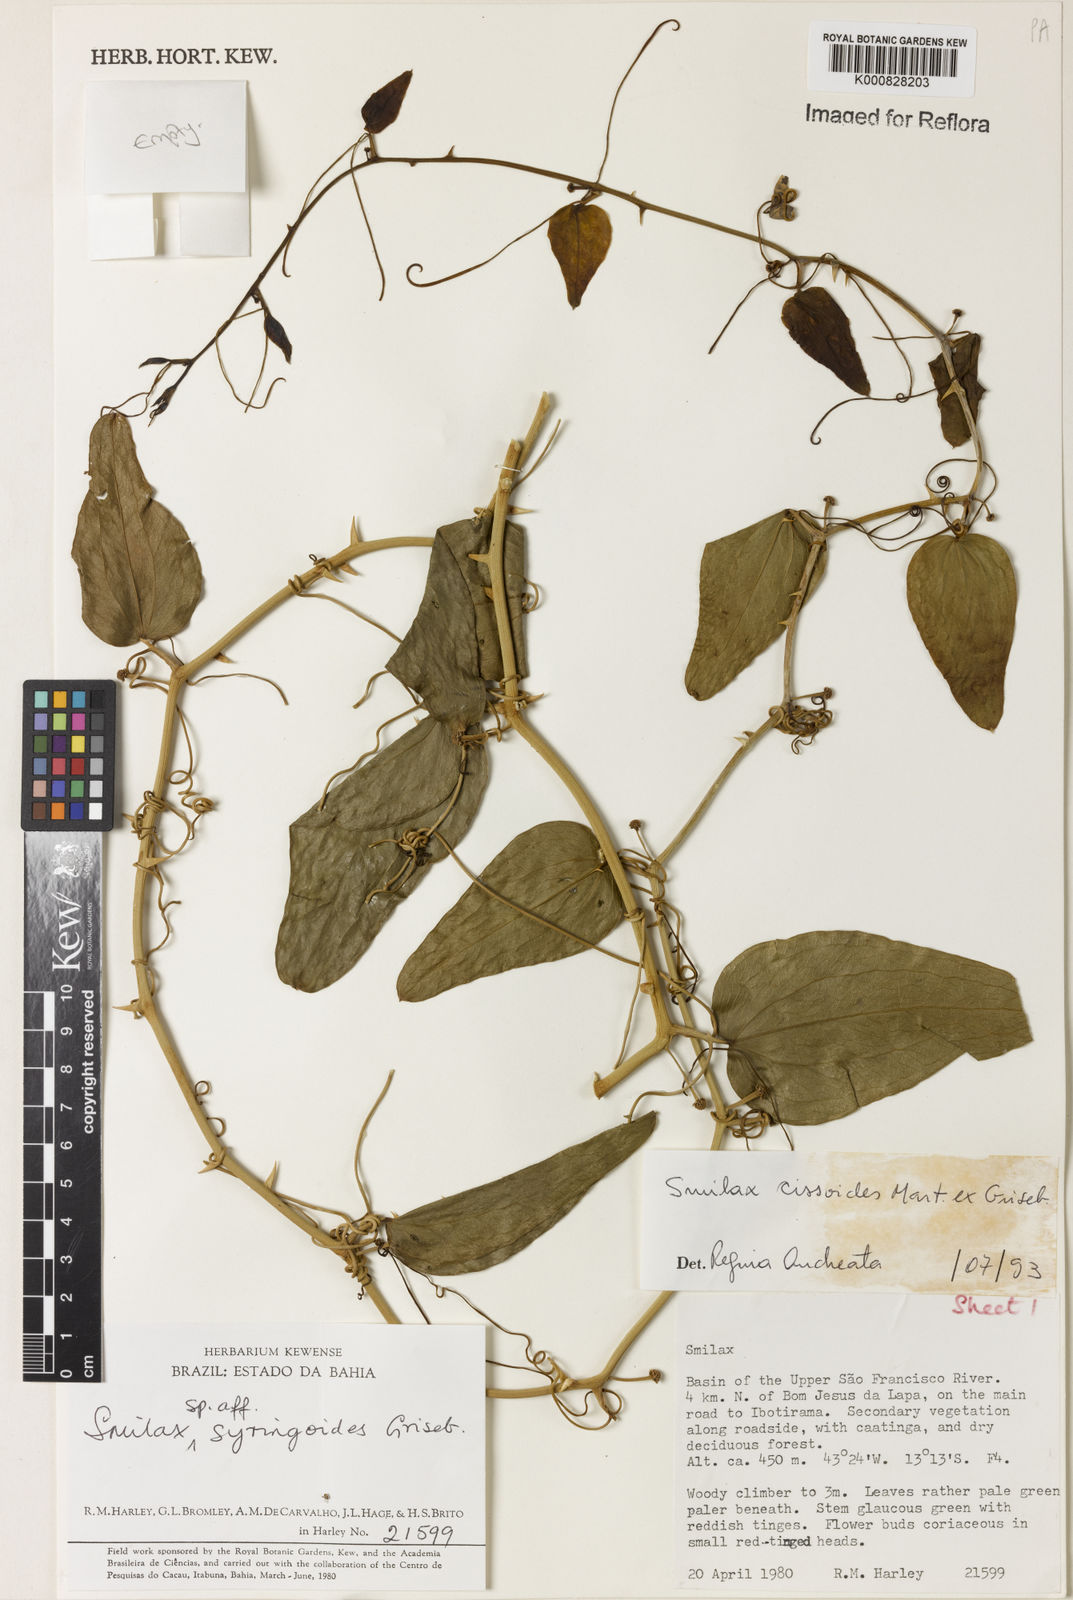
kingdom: Plantae
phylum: Tracheophyta
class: Liliopsida
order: Liliales
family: Smilacaceae
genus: Smilax
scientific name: Smilax
